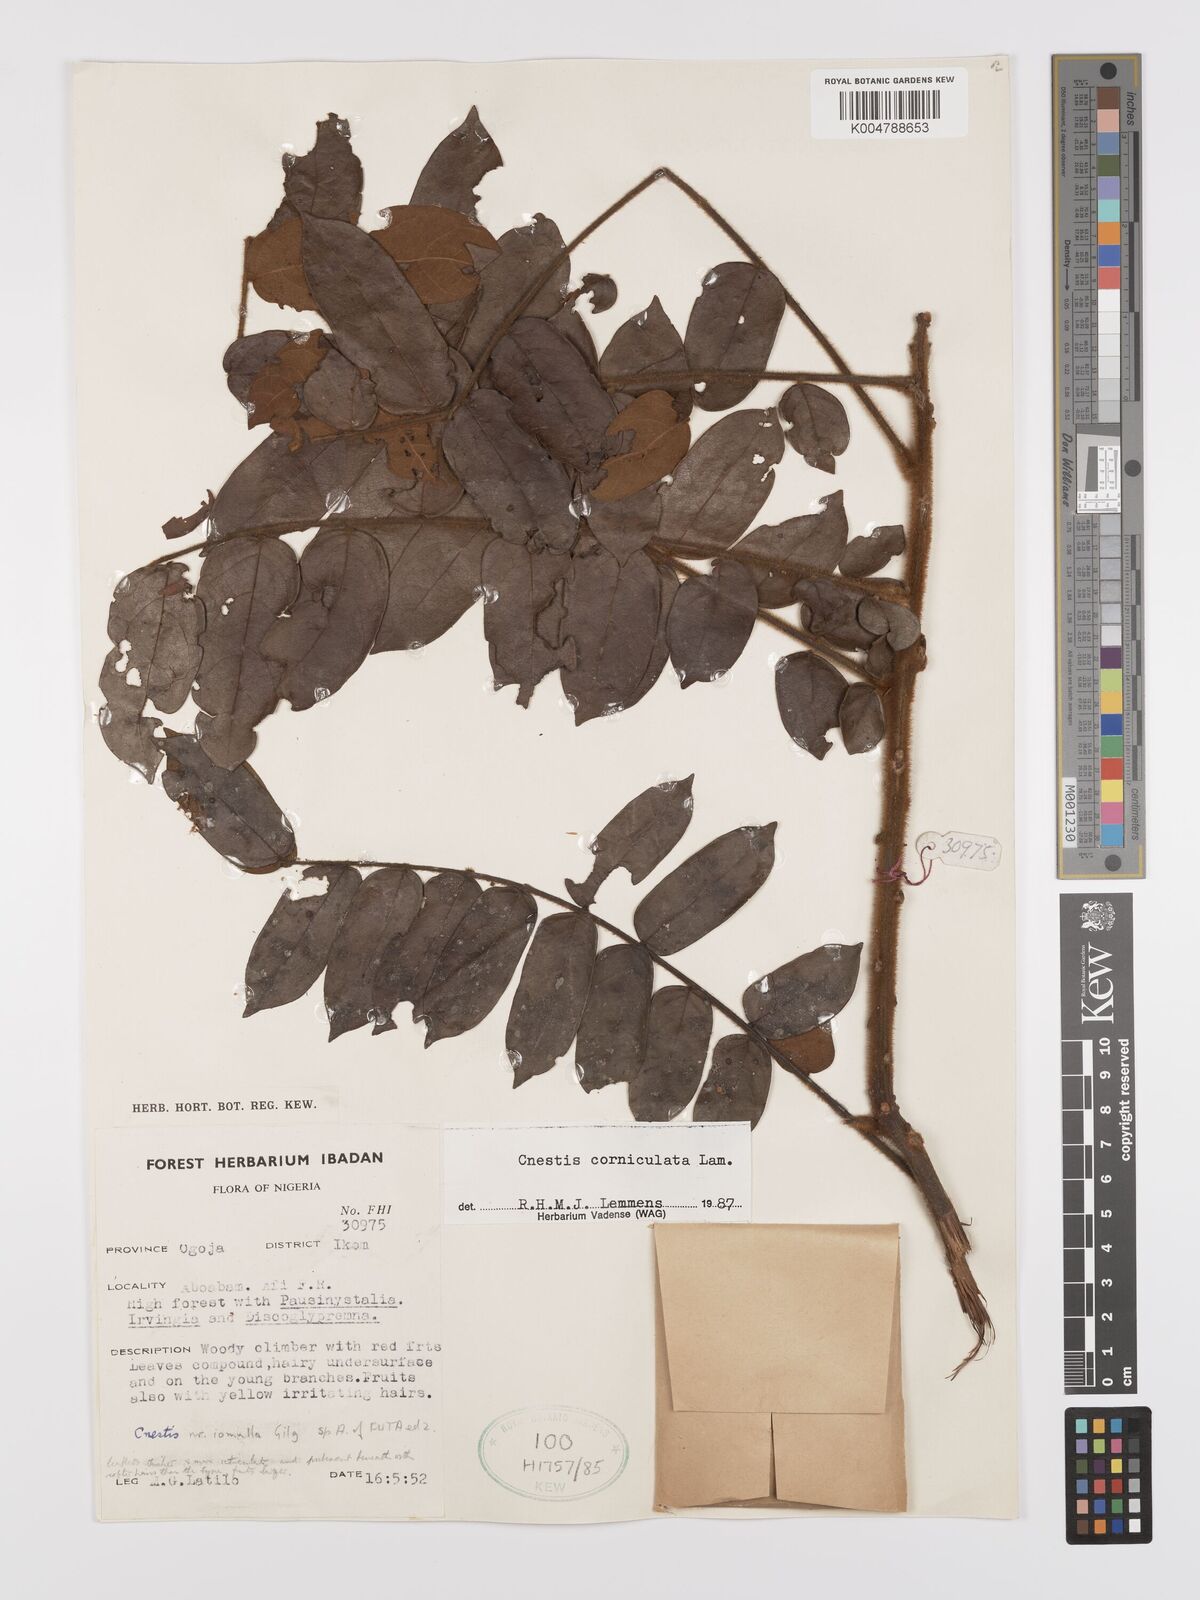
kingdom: Plantae
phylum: Tracheophyta
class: Magnoliopsida
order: Oxalidales
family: Connaraceae
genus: Cnestis
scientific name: Cnestis corniculata
